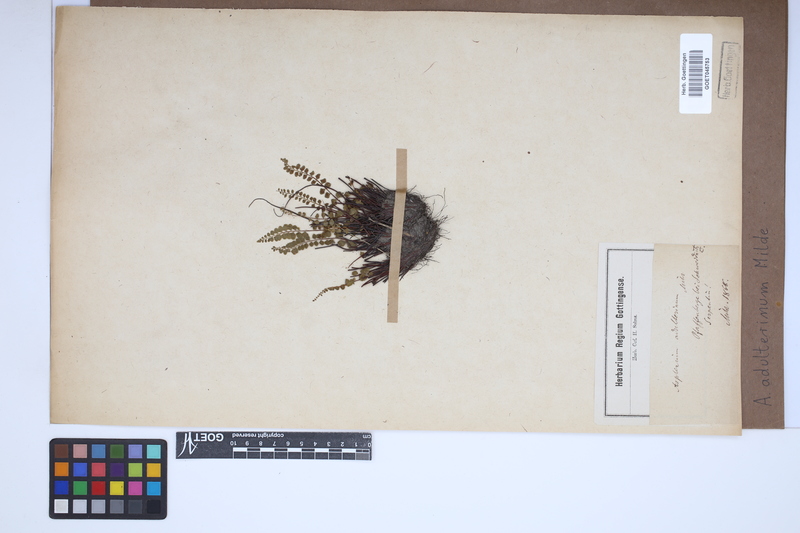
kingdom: Plantae
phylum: Tracheophyta
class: Polypodiopsida
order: Polypodiales
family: Aspleniaceae
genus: Asplenium
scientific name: Asplenium adulterinum
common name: Adulterated spleenwort
